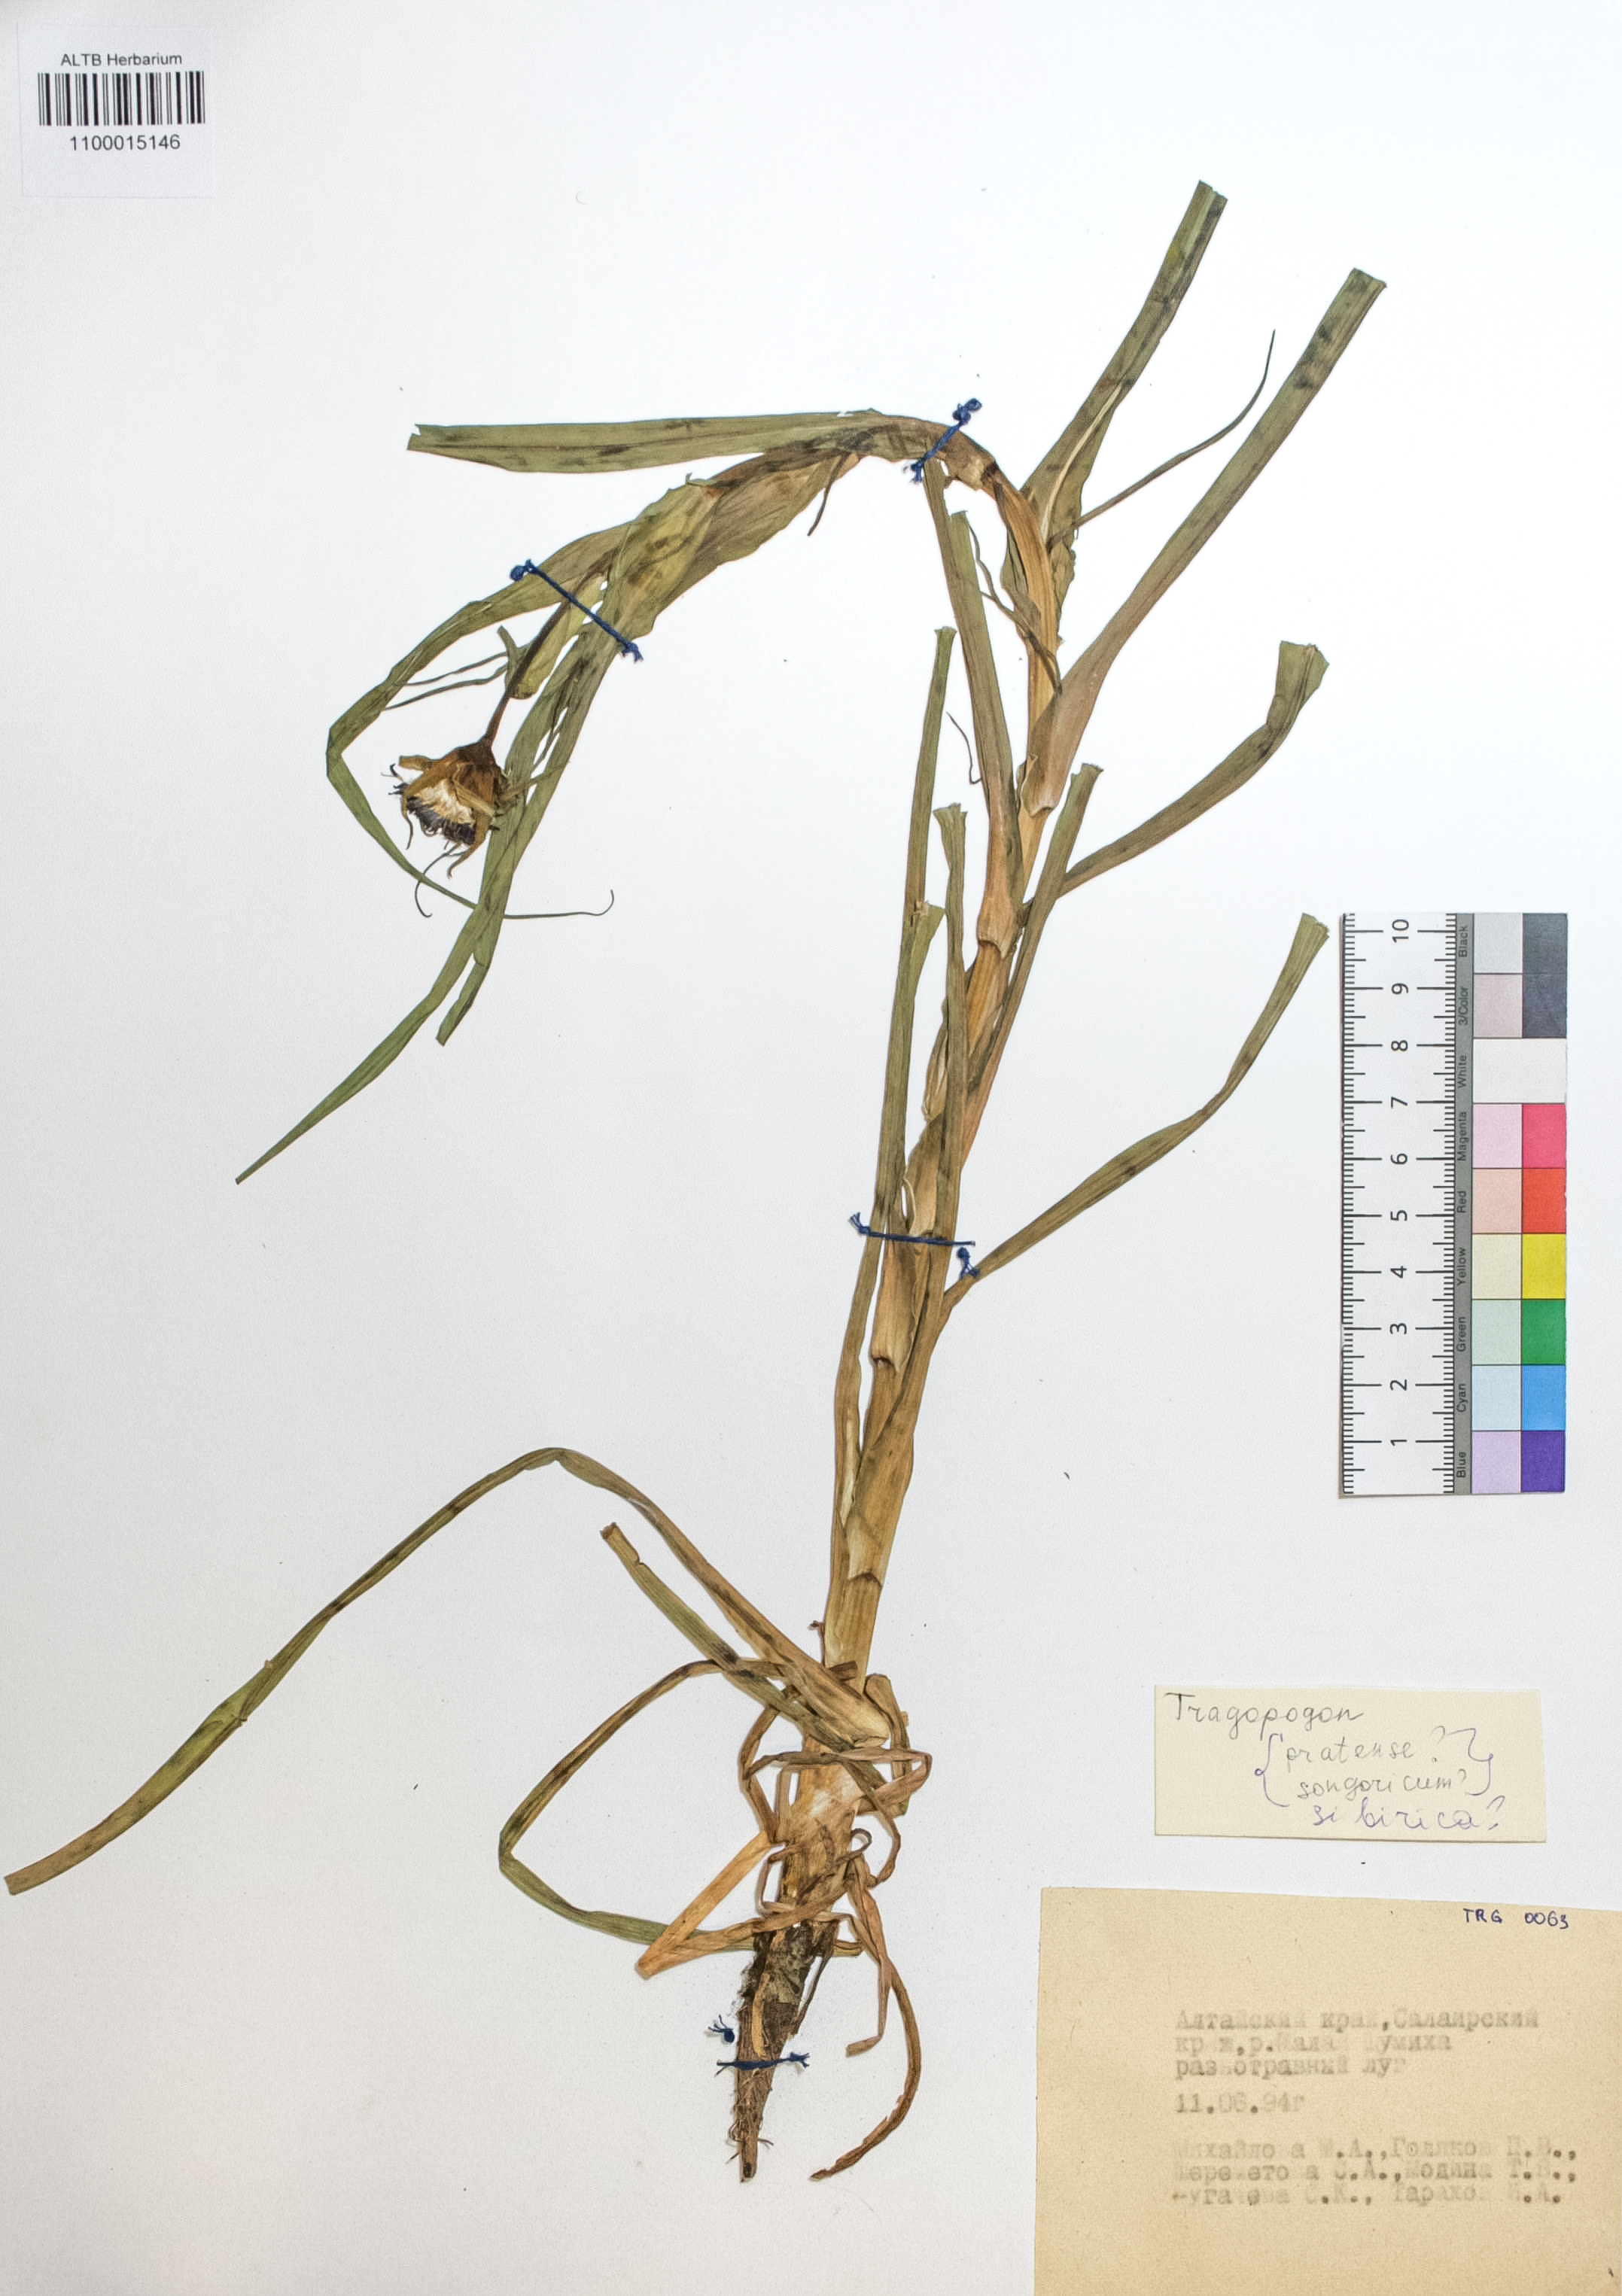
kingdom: Plantae
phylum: Tracheophyta
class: Magnoliopsida
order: Asterales
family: Asteraceae
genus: Tragopogon
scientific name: Tragopogon orientalis
